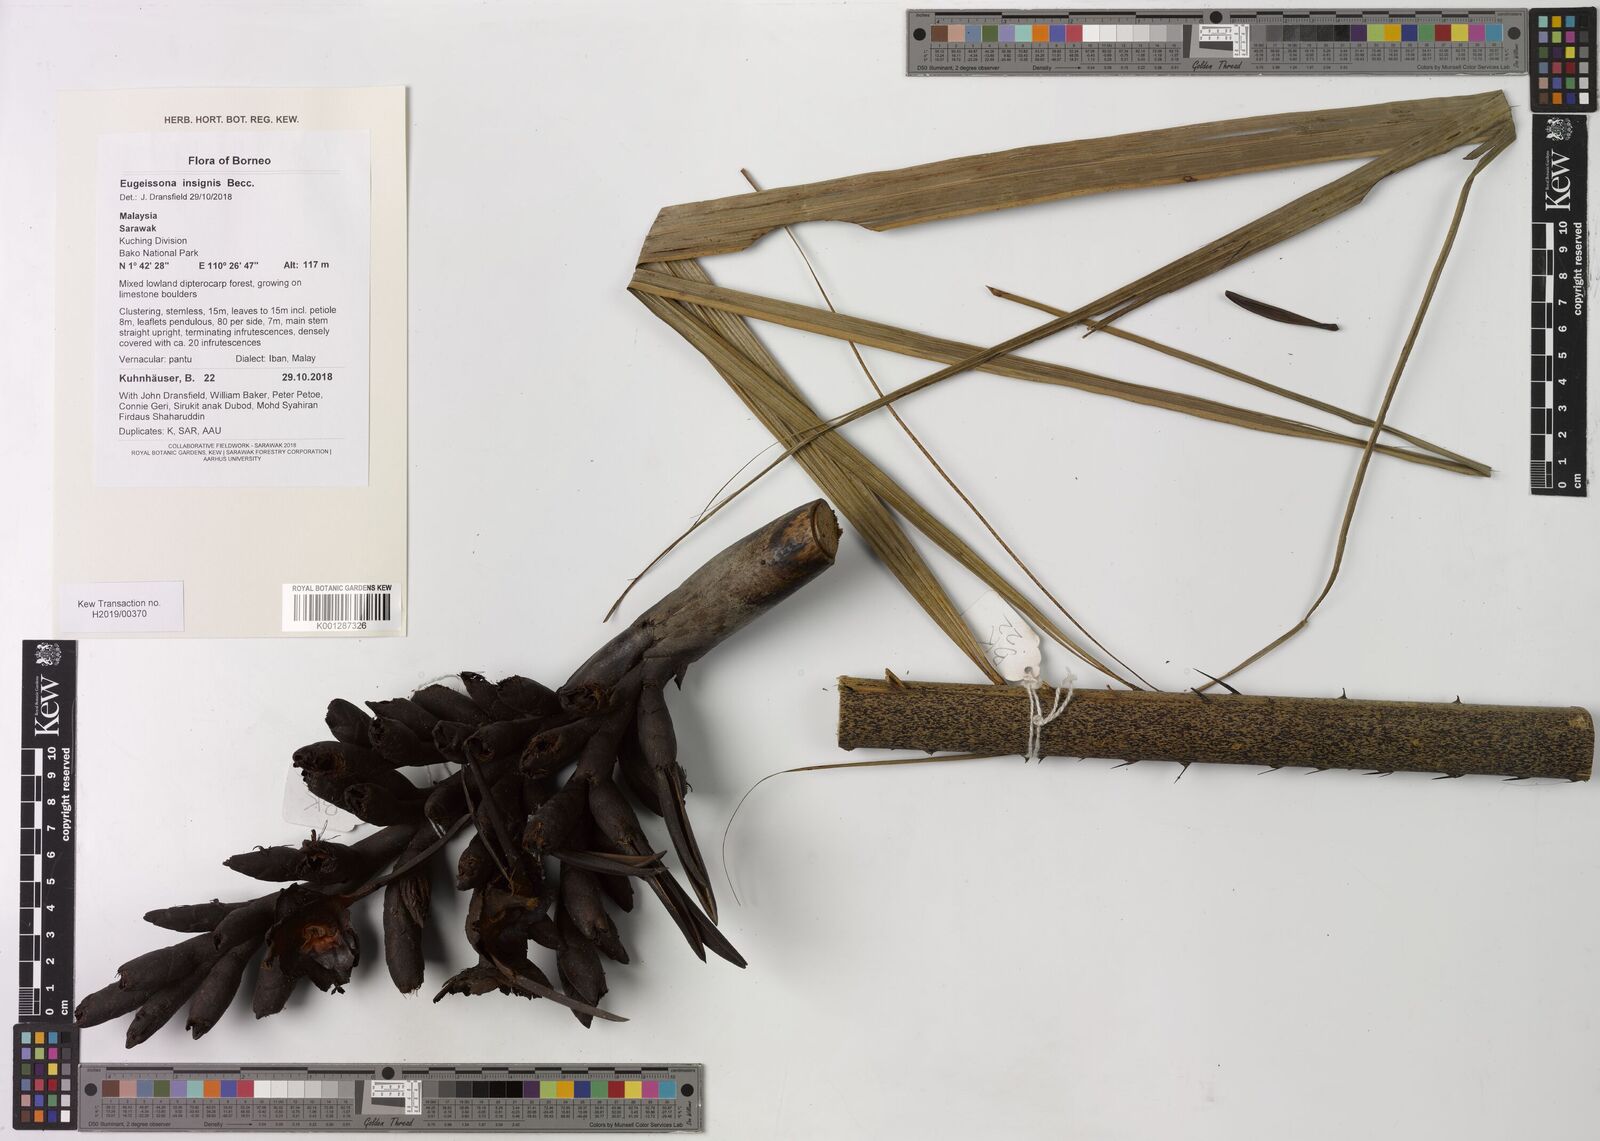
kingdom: Plantae
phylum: Tracheophyta
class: Liliopsida
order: Arecales
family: Arecaceae
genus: Eugeissona
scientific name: Eugeissona insignis
